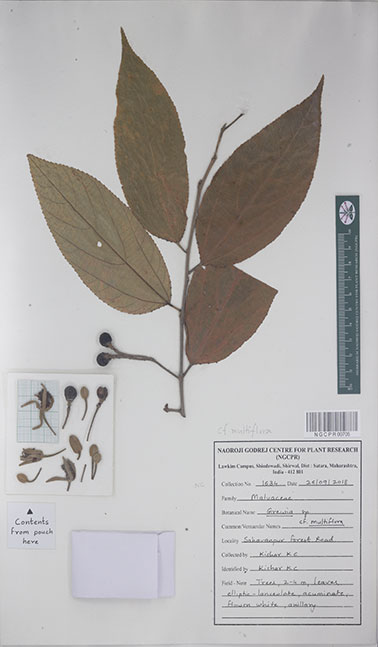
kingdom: Plantae
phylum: Tracheophyta
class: Magnoliopsida
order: Malvales
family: Malvaceae
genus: Grewia
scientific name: Grewia multiflora
